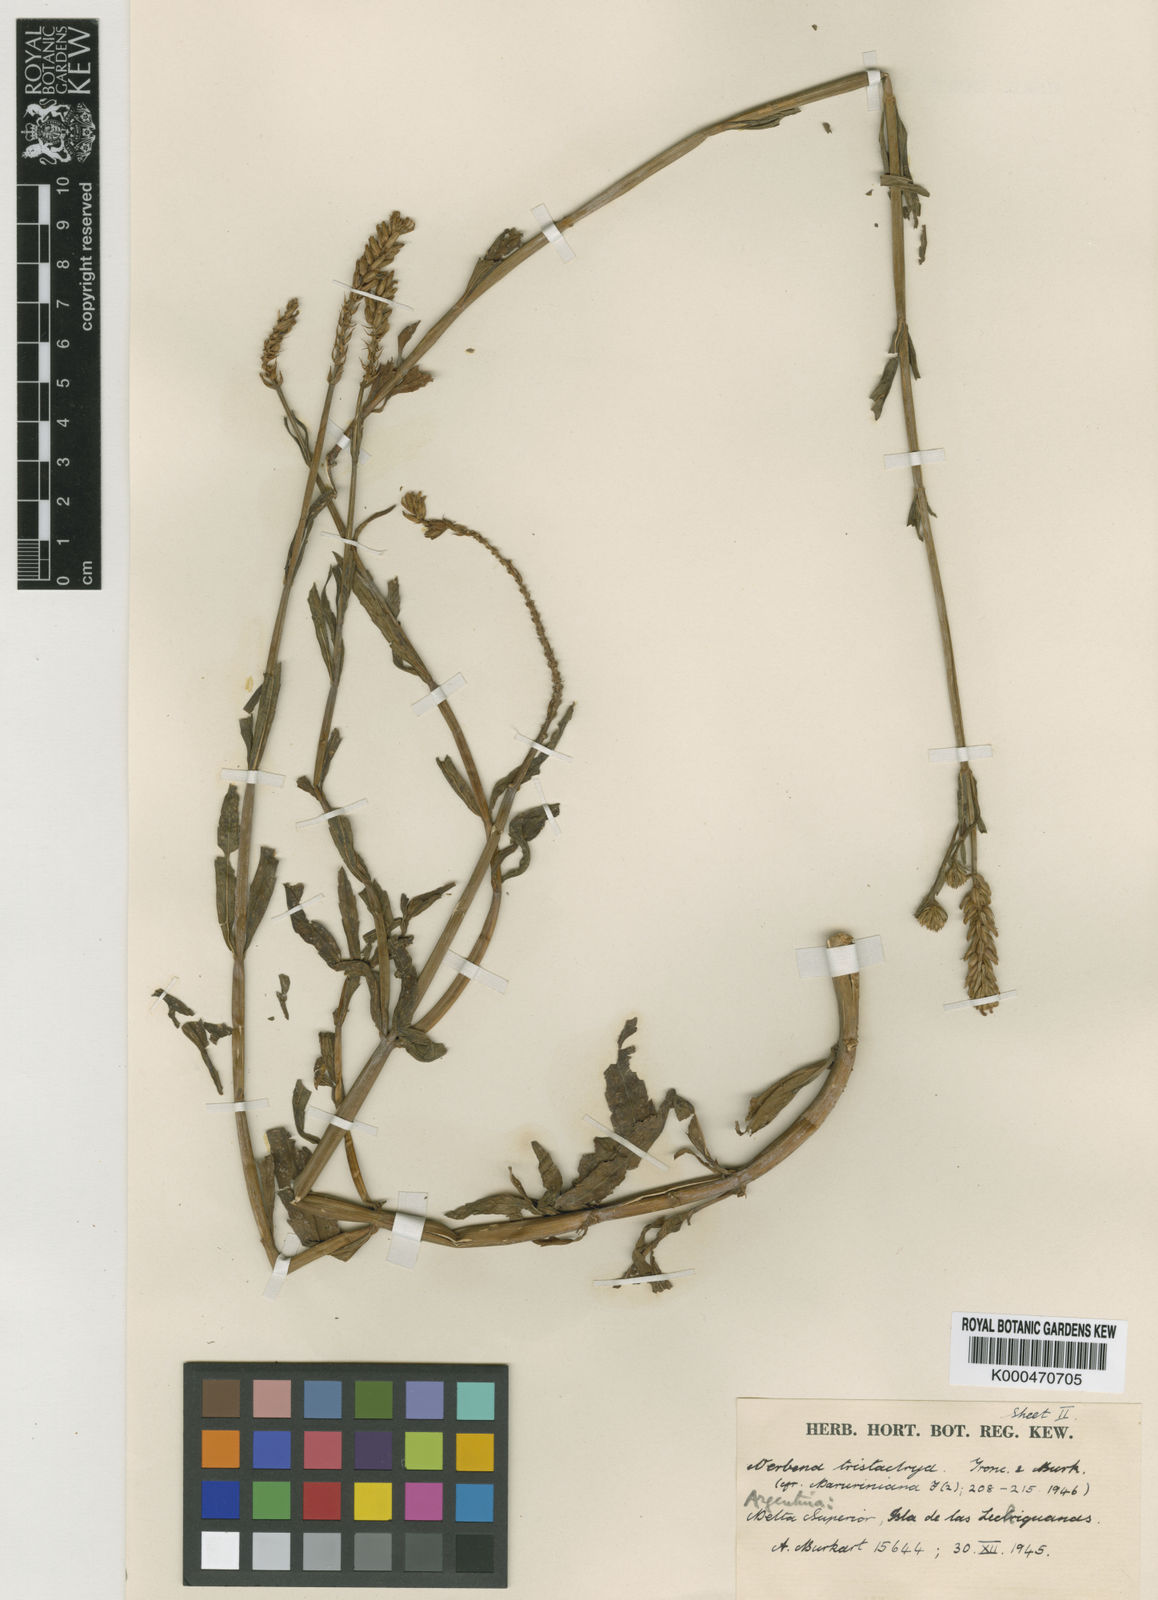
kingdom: Plantae
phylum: Tracheophyta
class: Magnoliopsida
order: Lamiales
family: Verbenaceae
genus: Verbena
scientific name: Verbena sessilis
